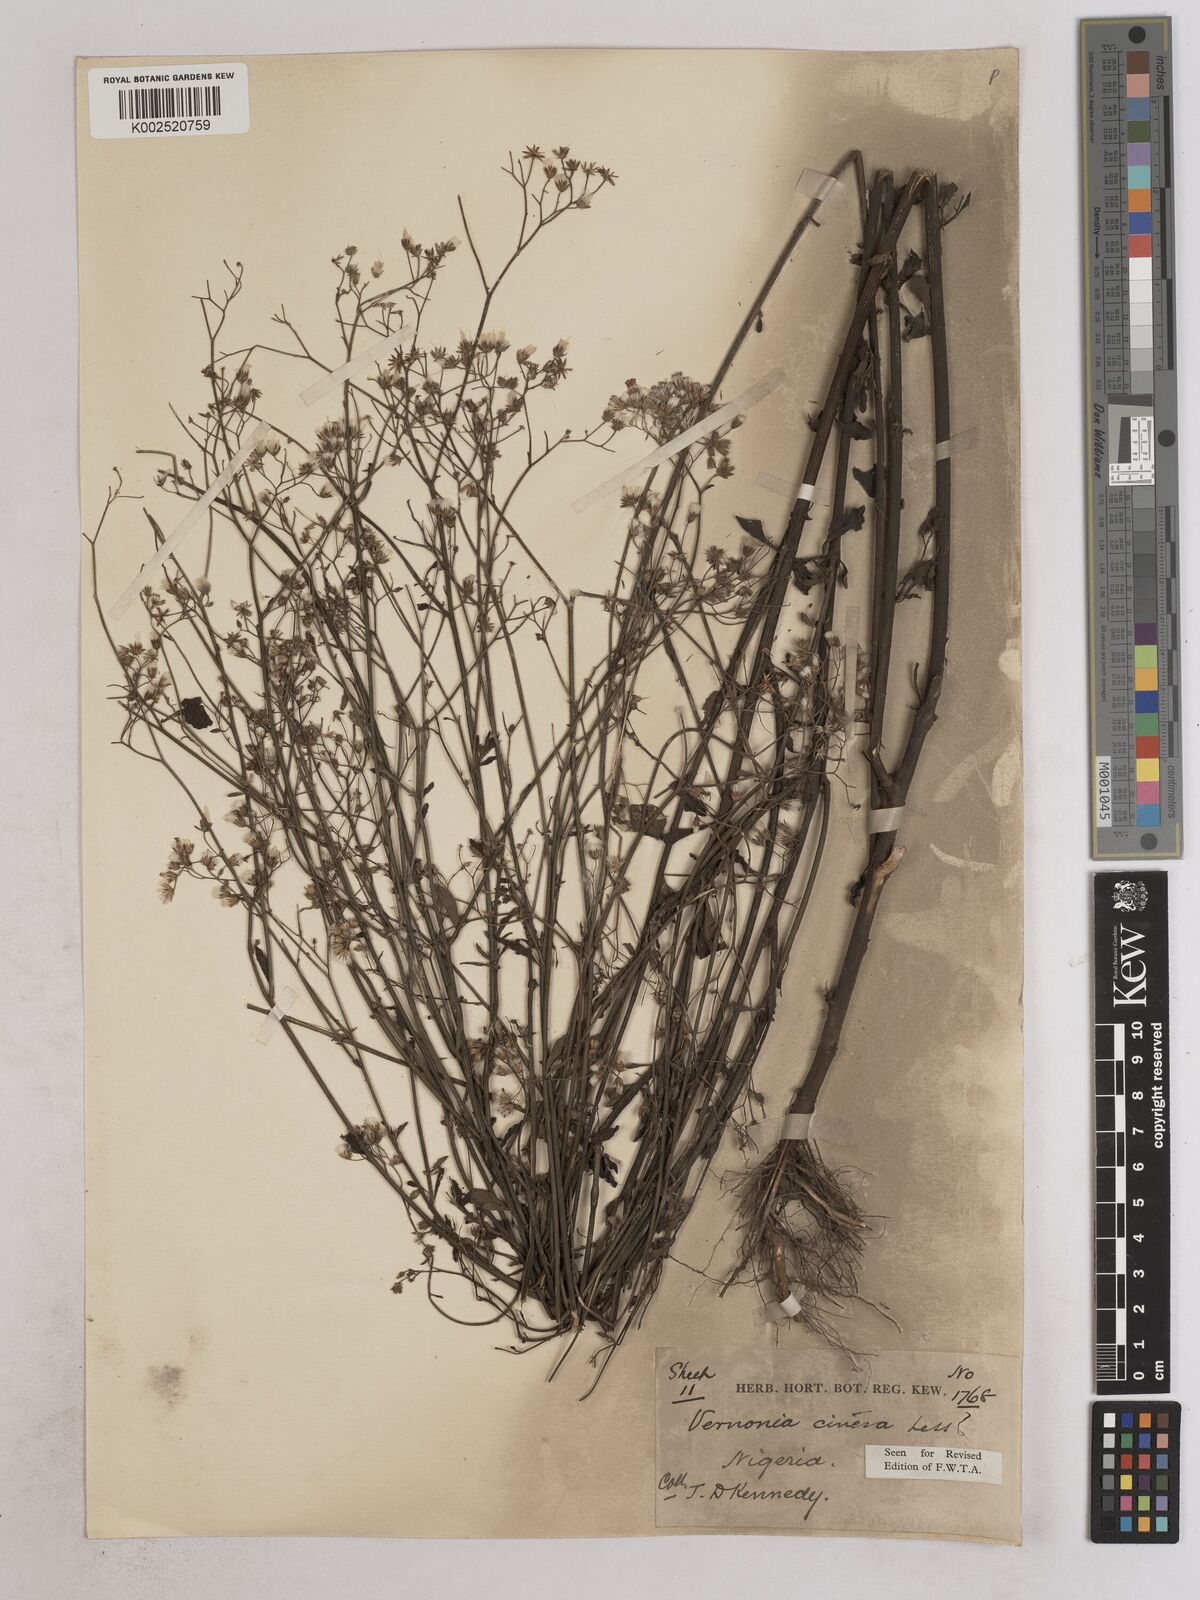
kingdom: Plantae
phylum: Tracheophyta
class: Magnoliopsida
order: Asterales
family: Asteraceae
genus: Cyanthillium
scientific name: Cyanthillium cinereum
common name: Little ironweed
